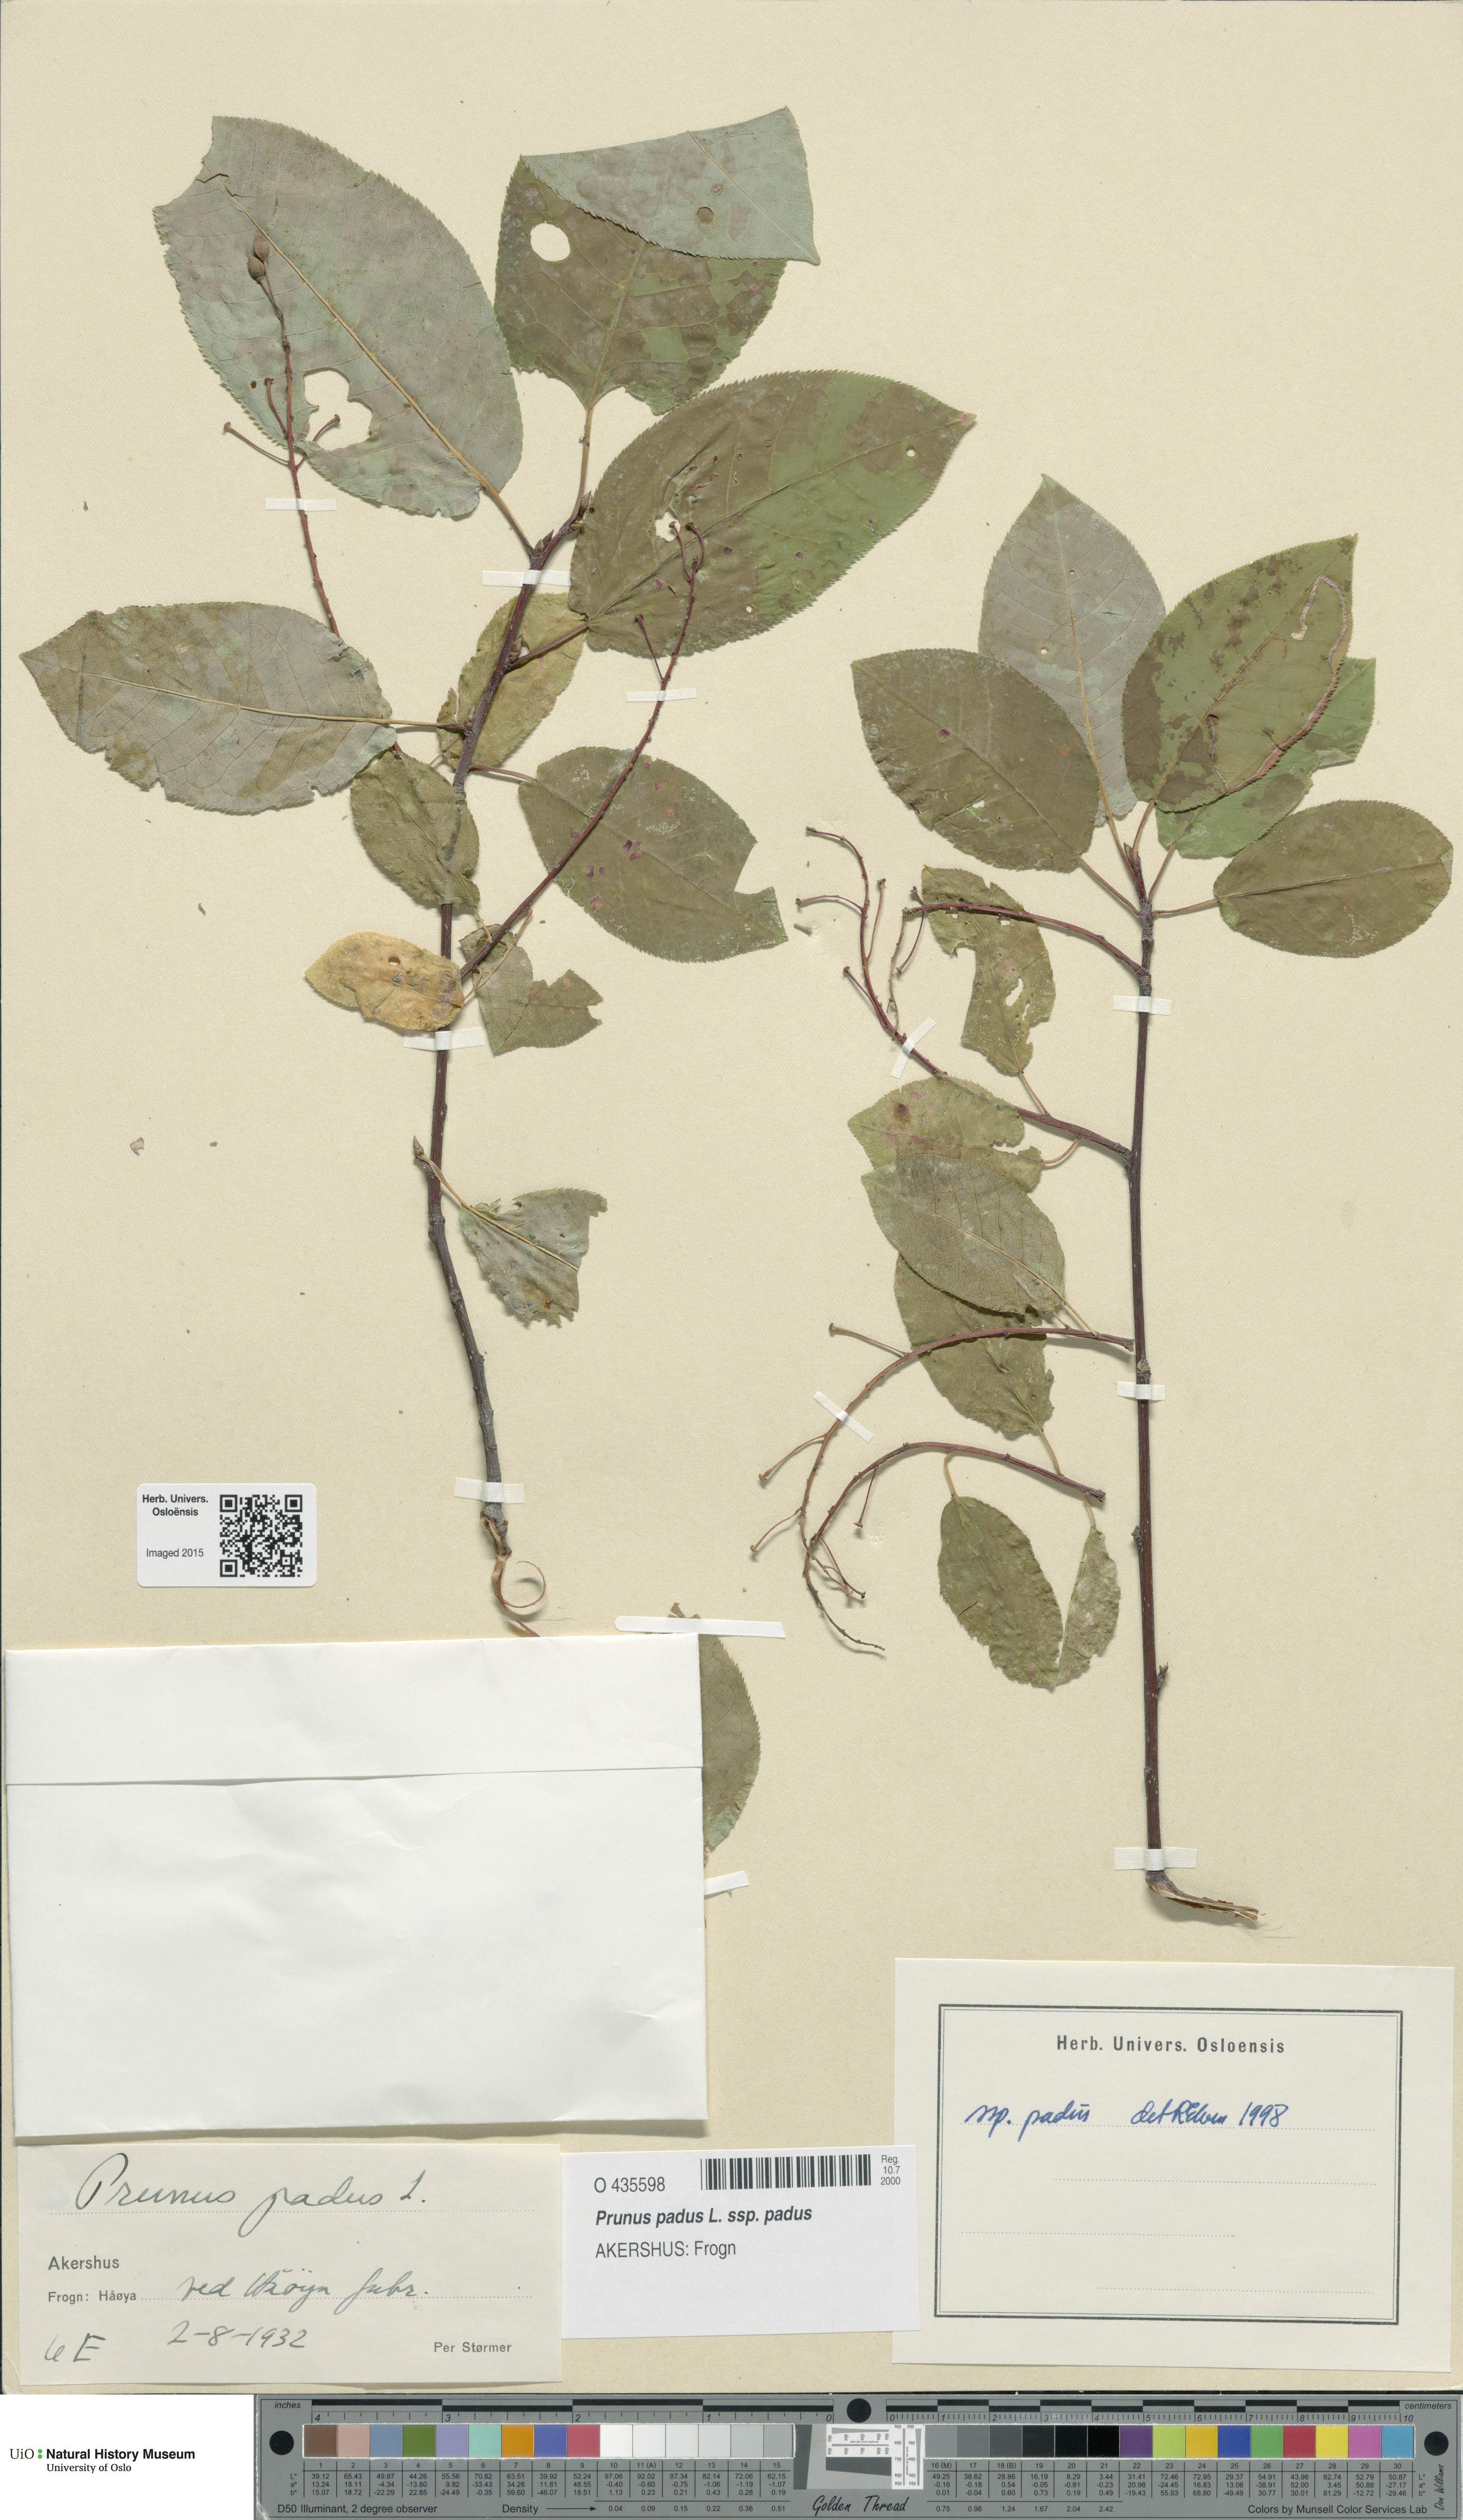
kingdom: Plantae
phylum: Tracheophyta
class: Magnoliopsida
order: Rosales
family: Rosaceae
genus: Prunus
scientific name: Prunus padus
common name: Bird cherry
